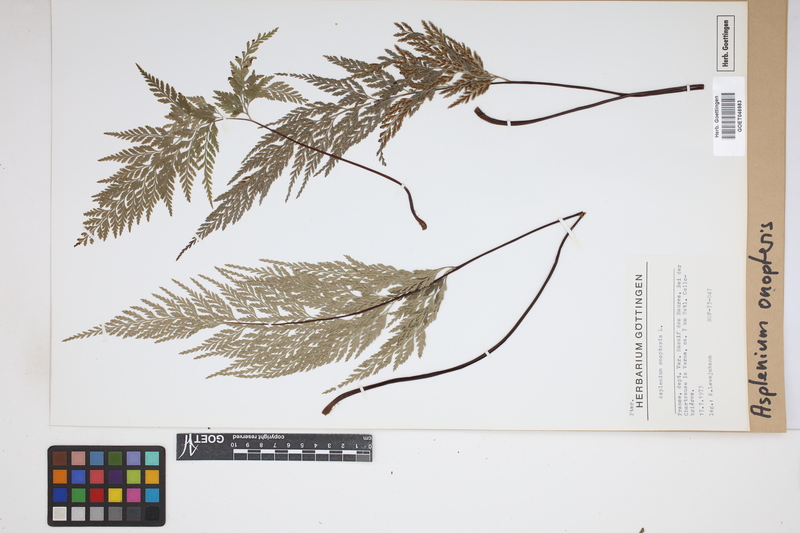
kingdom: Plantae
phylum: Tracheophyta
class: Polypodiopsida
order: Polypodiales
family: Aspleniaceae
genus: Asplenium
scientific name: Asplenium onopteris
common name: Irish spleenwort
